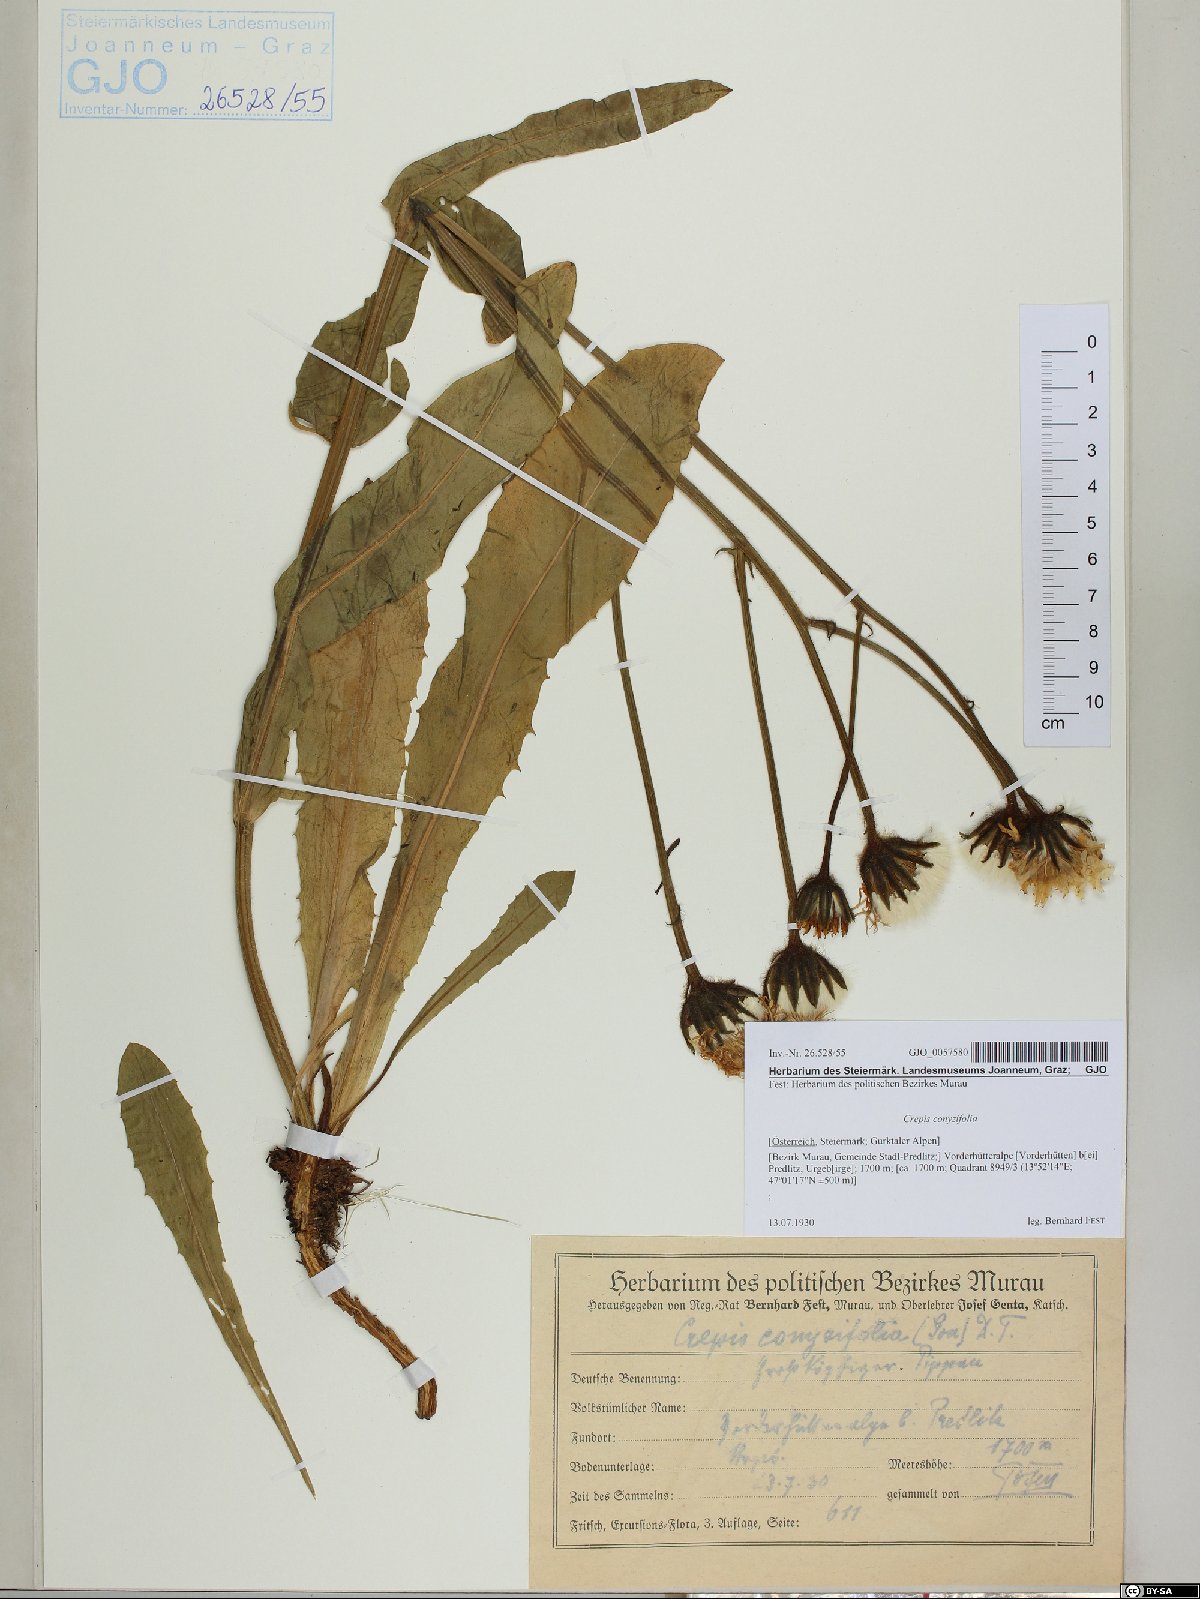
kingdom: Plantae
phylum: Tracheophyta
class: Magnoliopsida
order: Asterales
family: Asteraceae
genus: Crepis
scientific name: Crepis blattarioides
